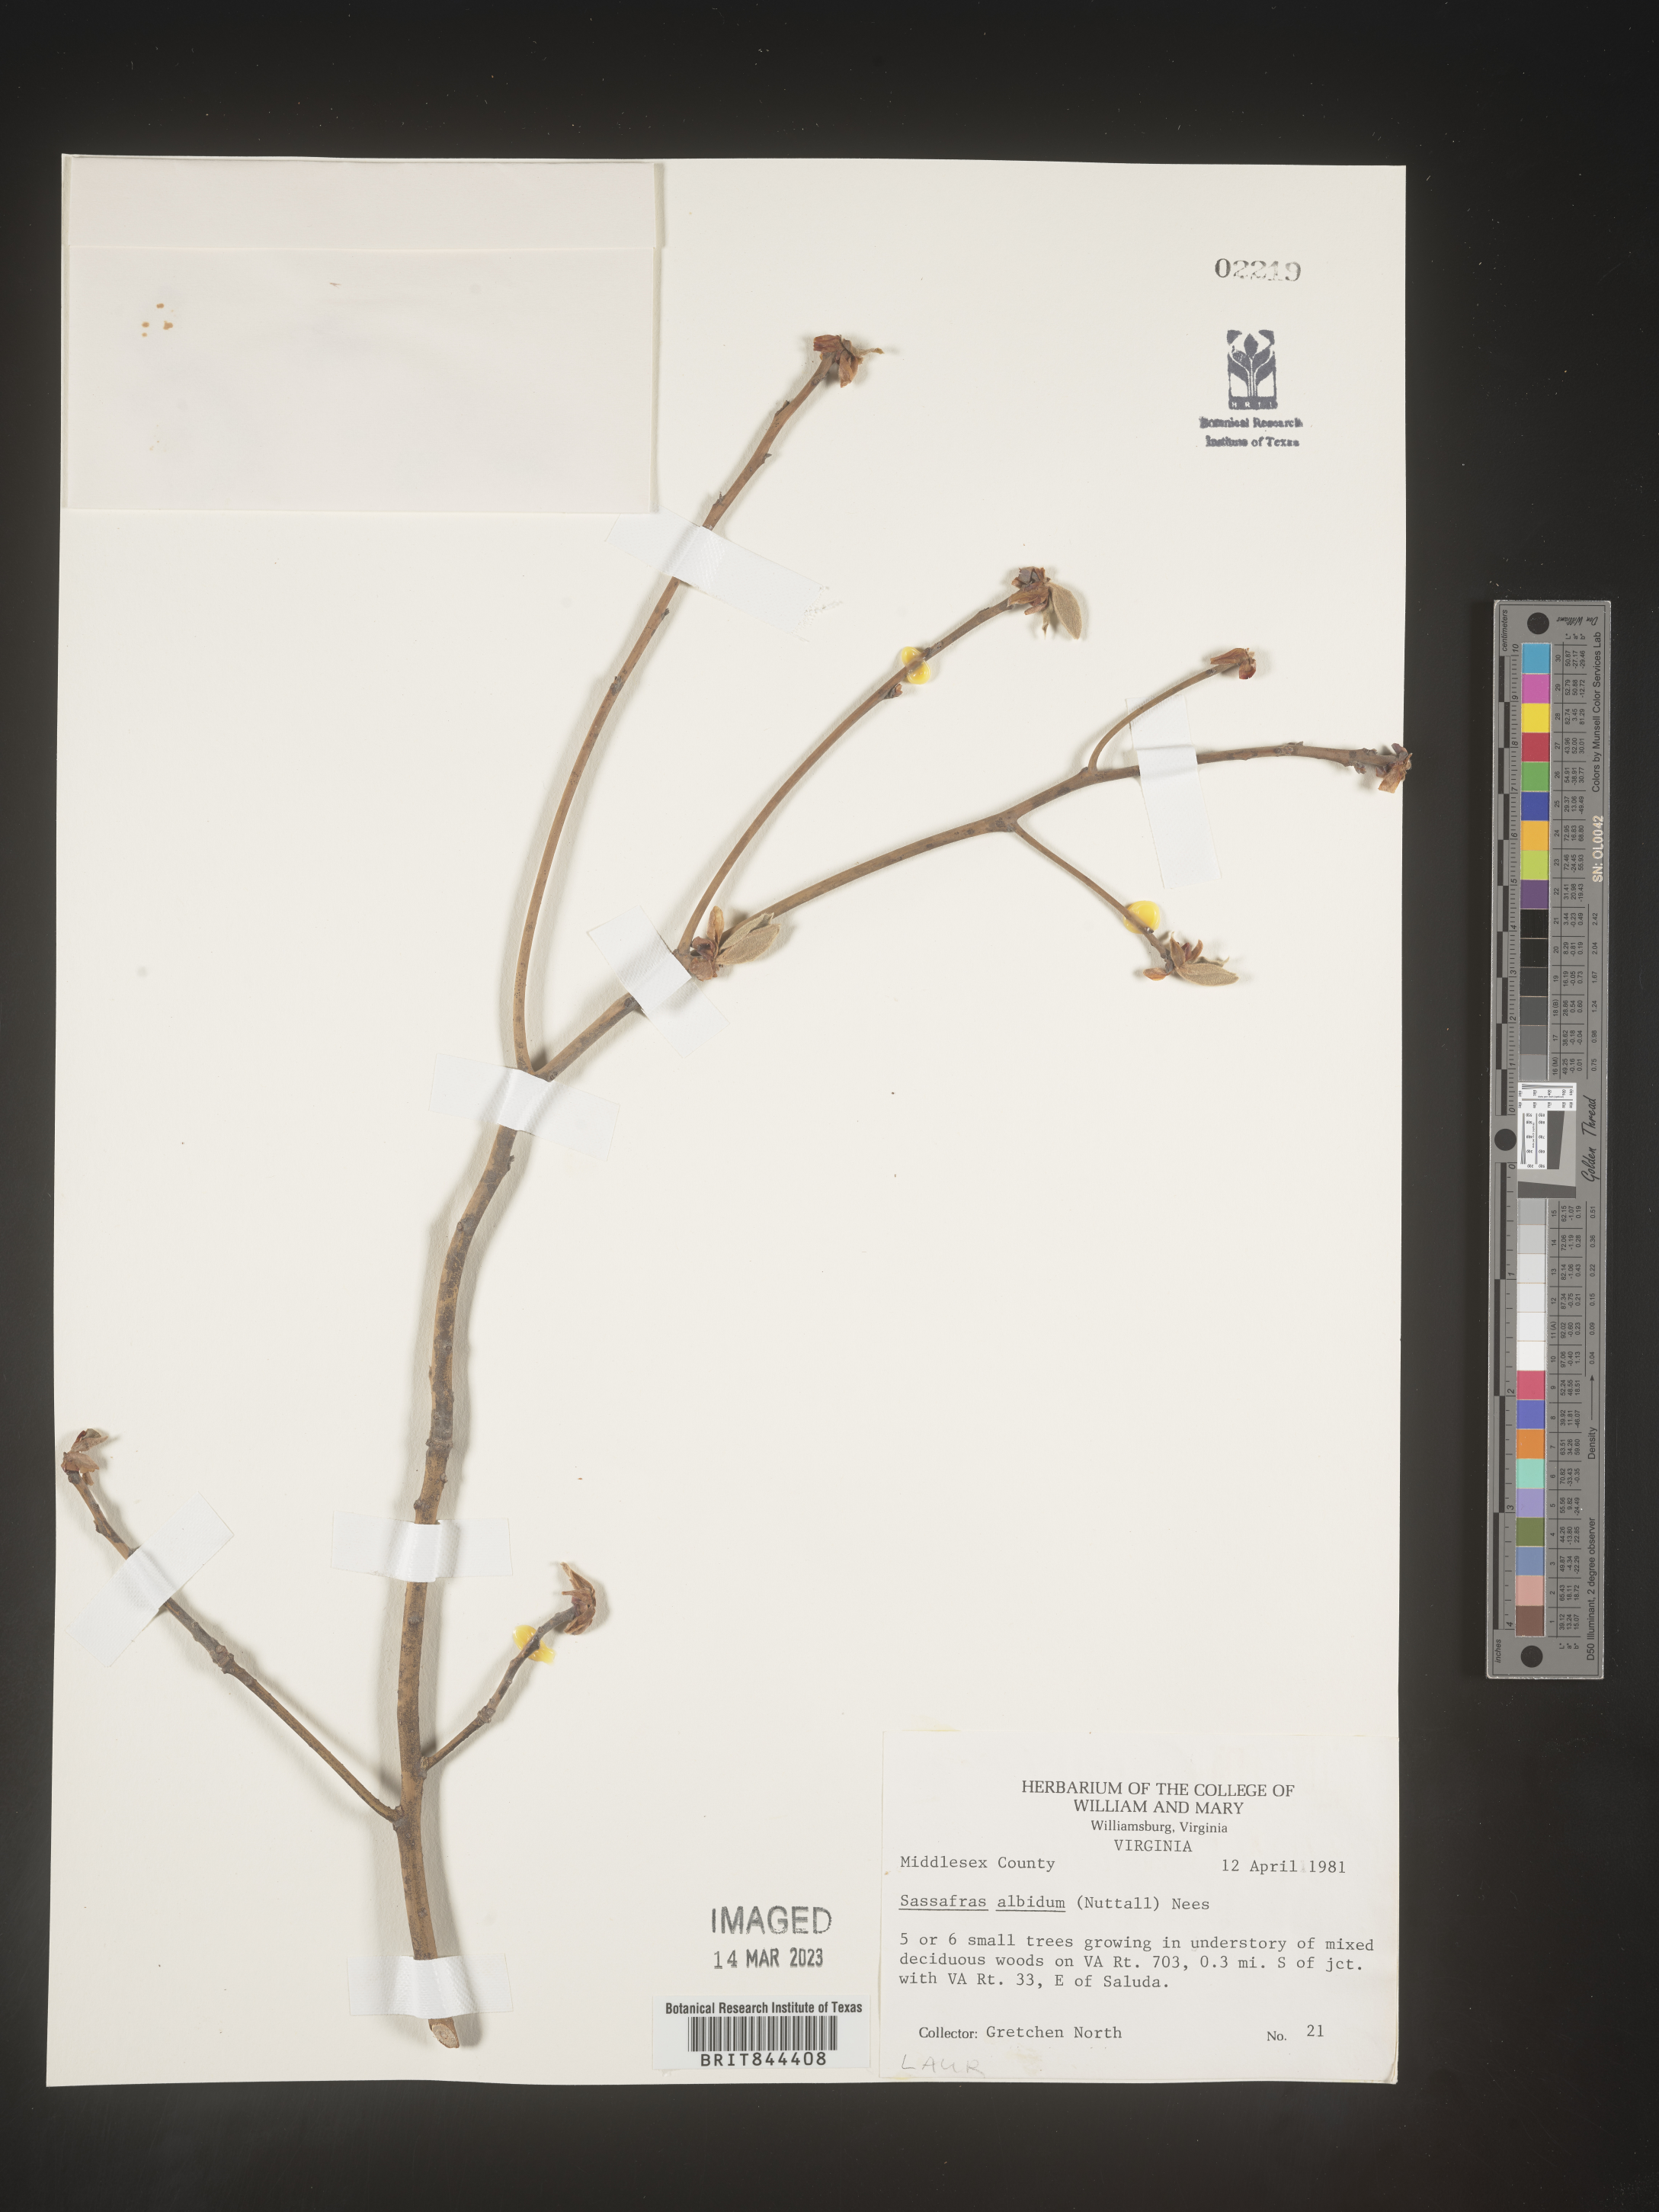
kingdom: Plantae
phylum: Tracheophyta
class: Magnoliopsida
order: Laurales
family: Lauraceae
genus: Sassafras
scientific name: Sassafras albidum
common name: Sassafras
